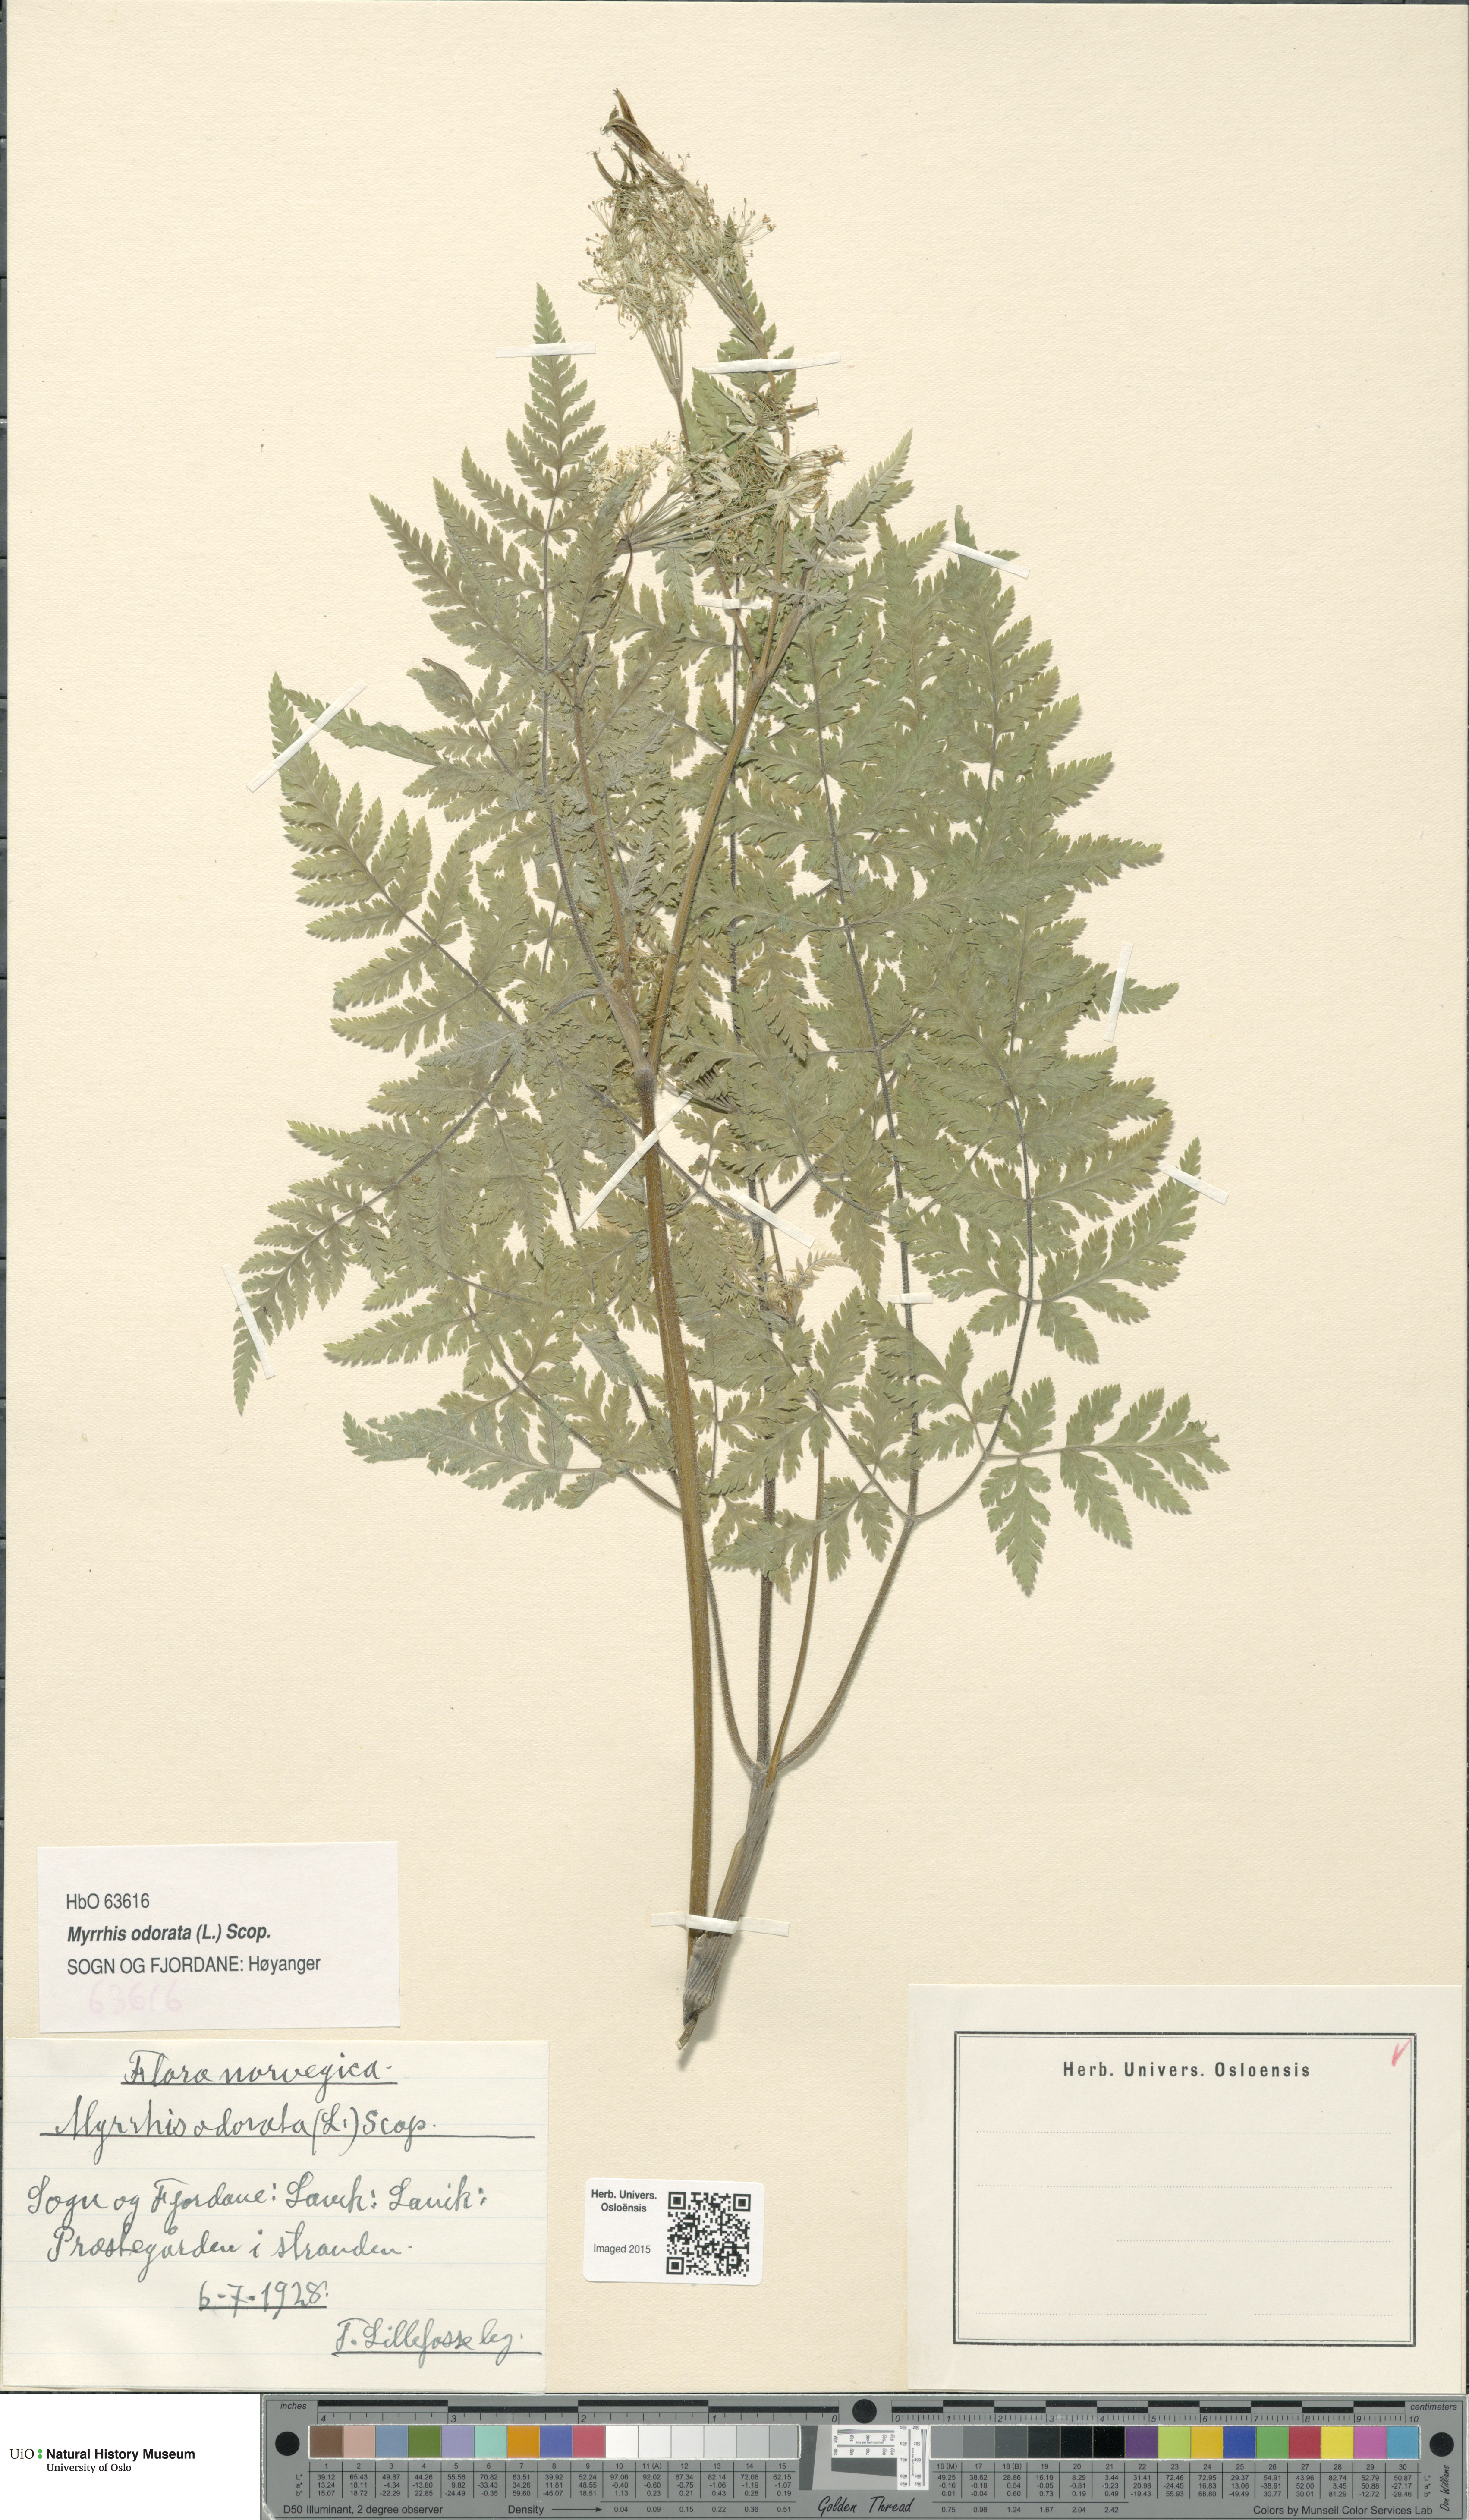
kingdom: Plantae
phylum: Tracheophyta
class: Magnoliopsida
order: Apiales
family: Apiaceae
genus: Myrrhis
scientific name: Myrrhis odorata
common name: Sweet cicely
